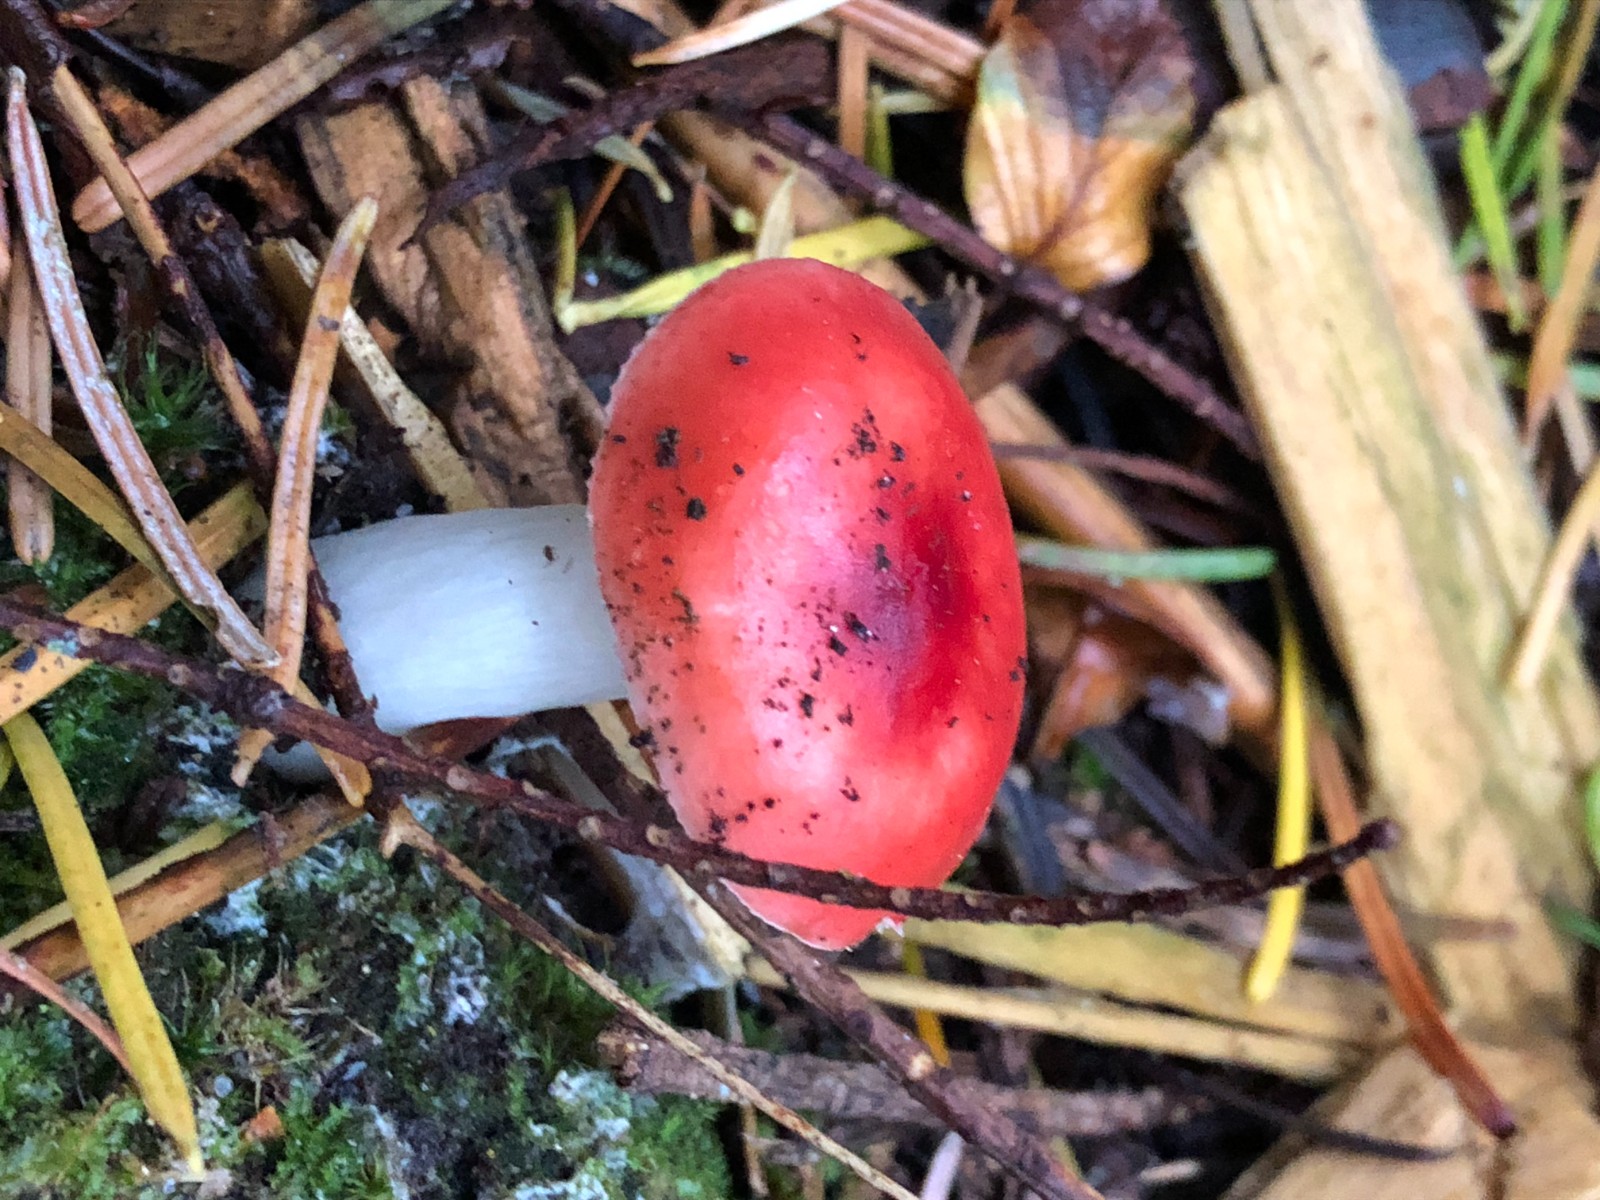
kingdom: Fungi
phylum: Basidiomycota
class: Agaricomycetes
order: Russulales
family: Russulaceae
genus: Russula
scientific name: Russula emetica
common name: stor gift-skørhat
